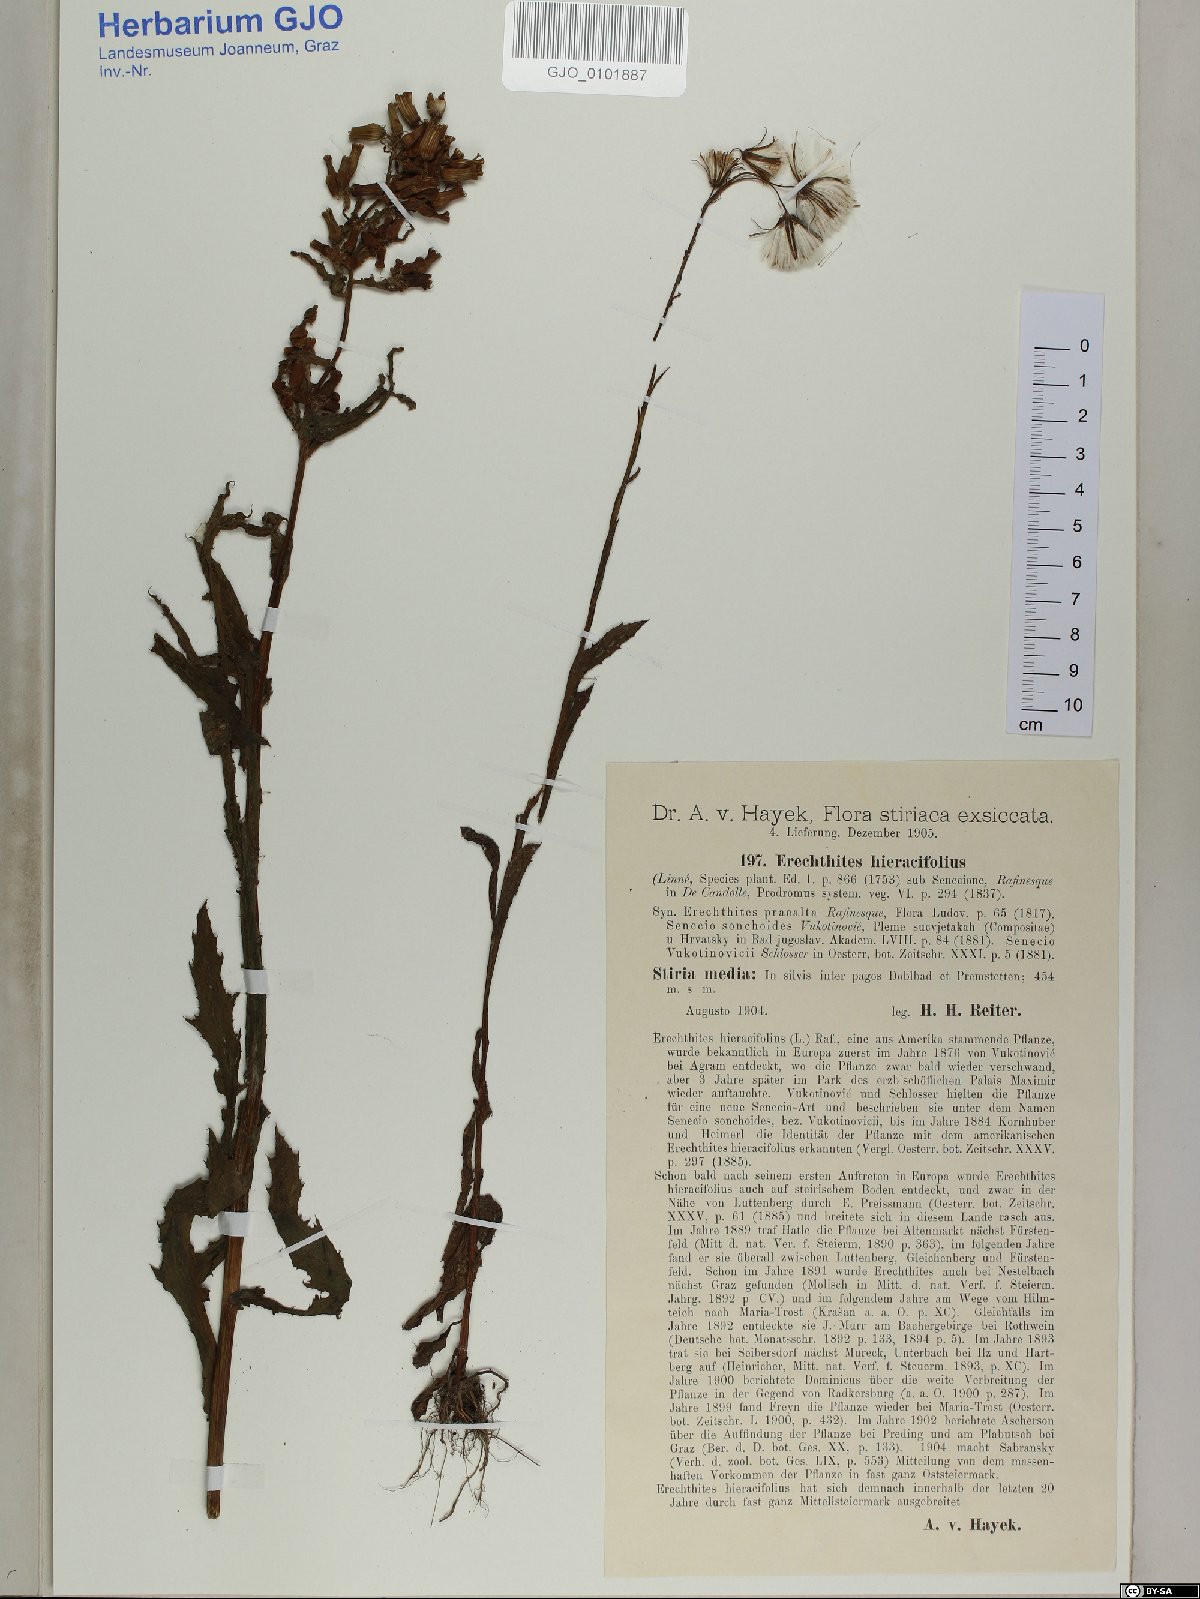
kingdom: Plantae
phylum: Tracheophyta
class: Magnoliopsida
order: Asterales
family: Asteraceae
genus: Erechtites
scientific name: Erechtites hieraciifolius
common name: American burnweed
